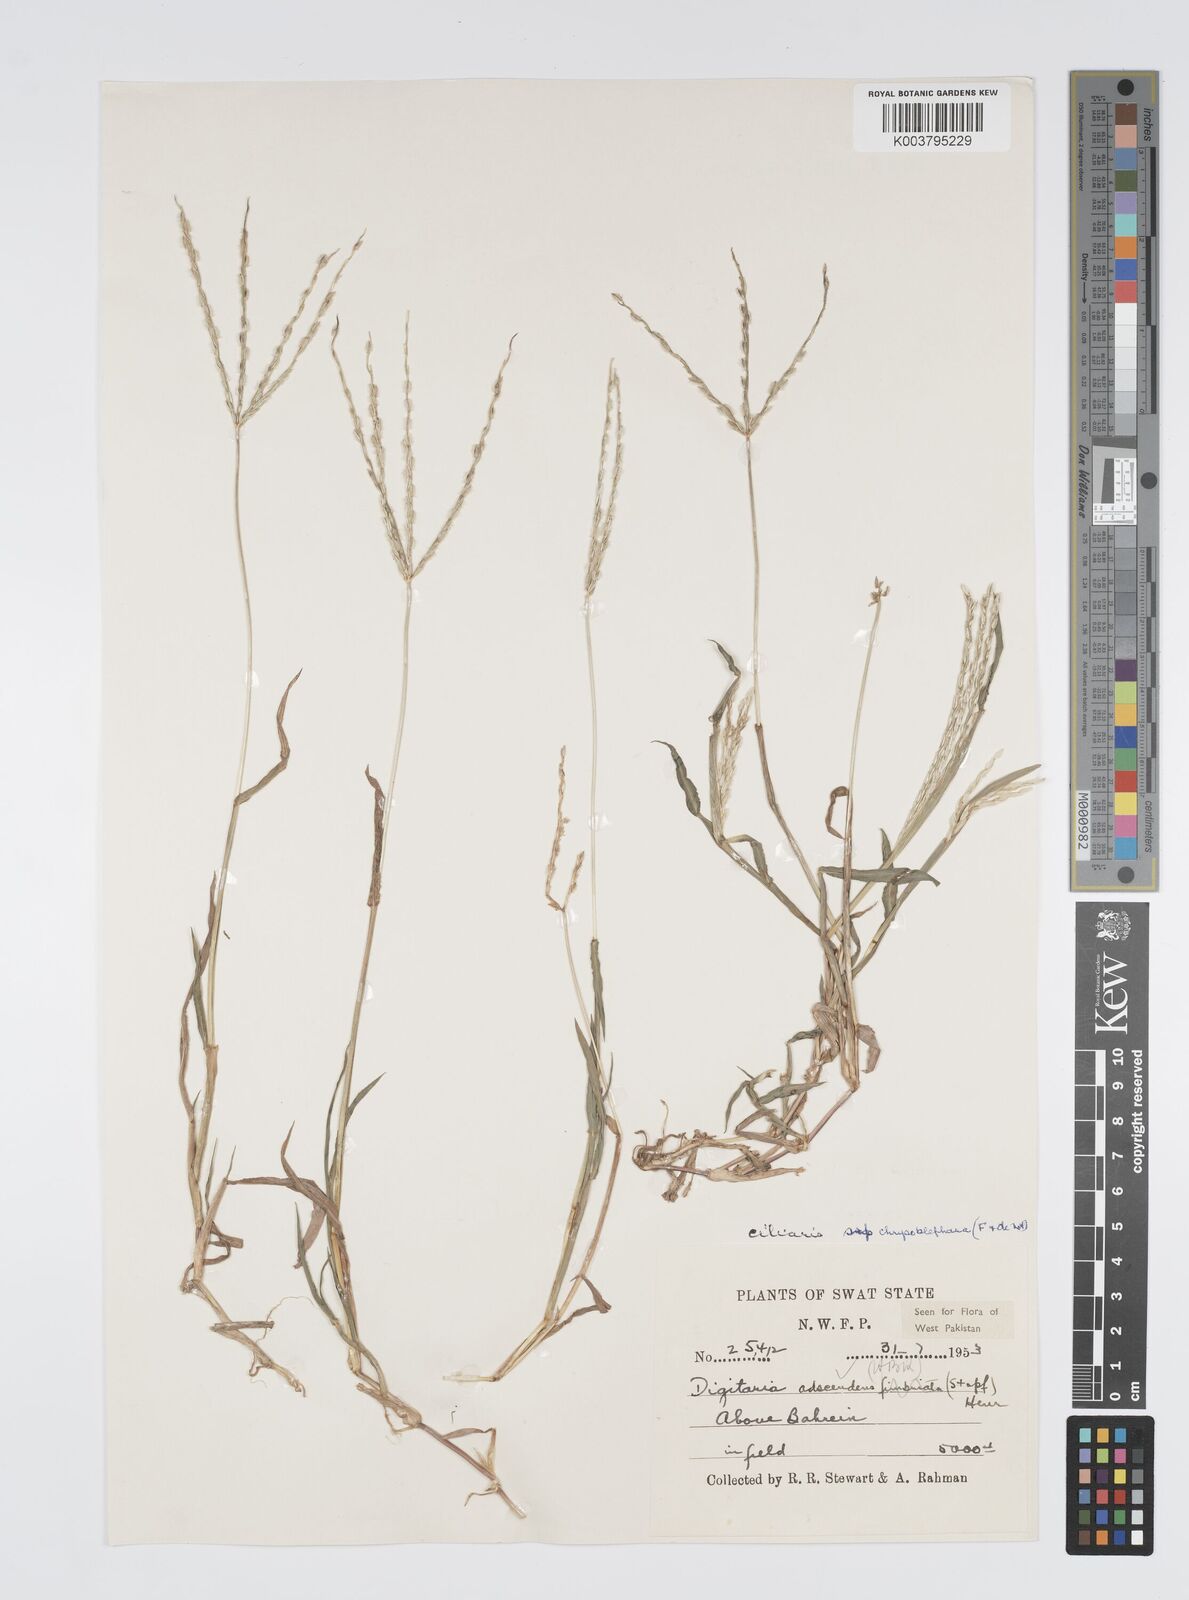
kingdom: Plantae
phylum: Tracheophyta
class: Liliopsida
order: Poales
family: Poaceae
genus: Digitaria
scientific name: Digitaria ciliaris
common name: Tropical finger-grass
